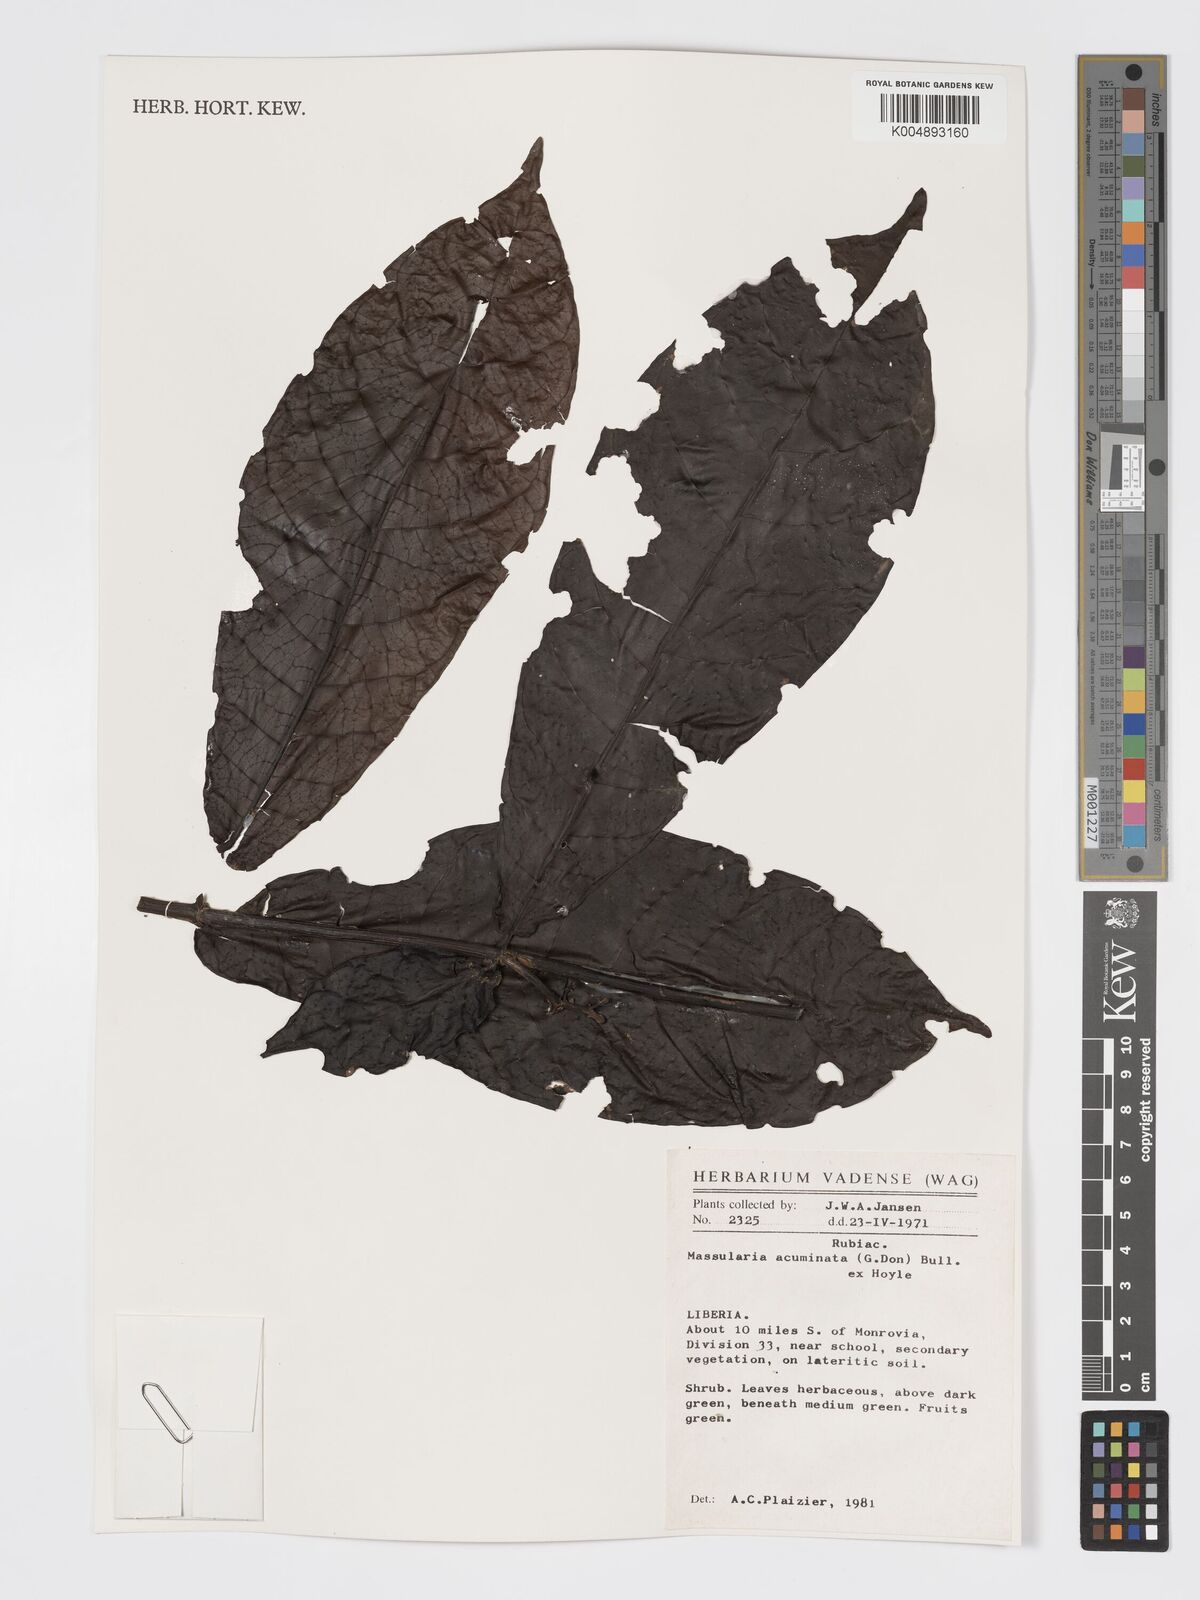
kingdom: Plantae
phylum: Tracheophyta
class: Magnoliopsida
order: Gentianales
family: Rubiaceae
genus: Massularia
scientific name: Massularia acuminata
